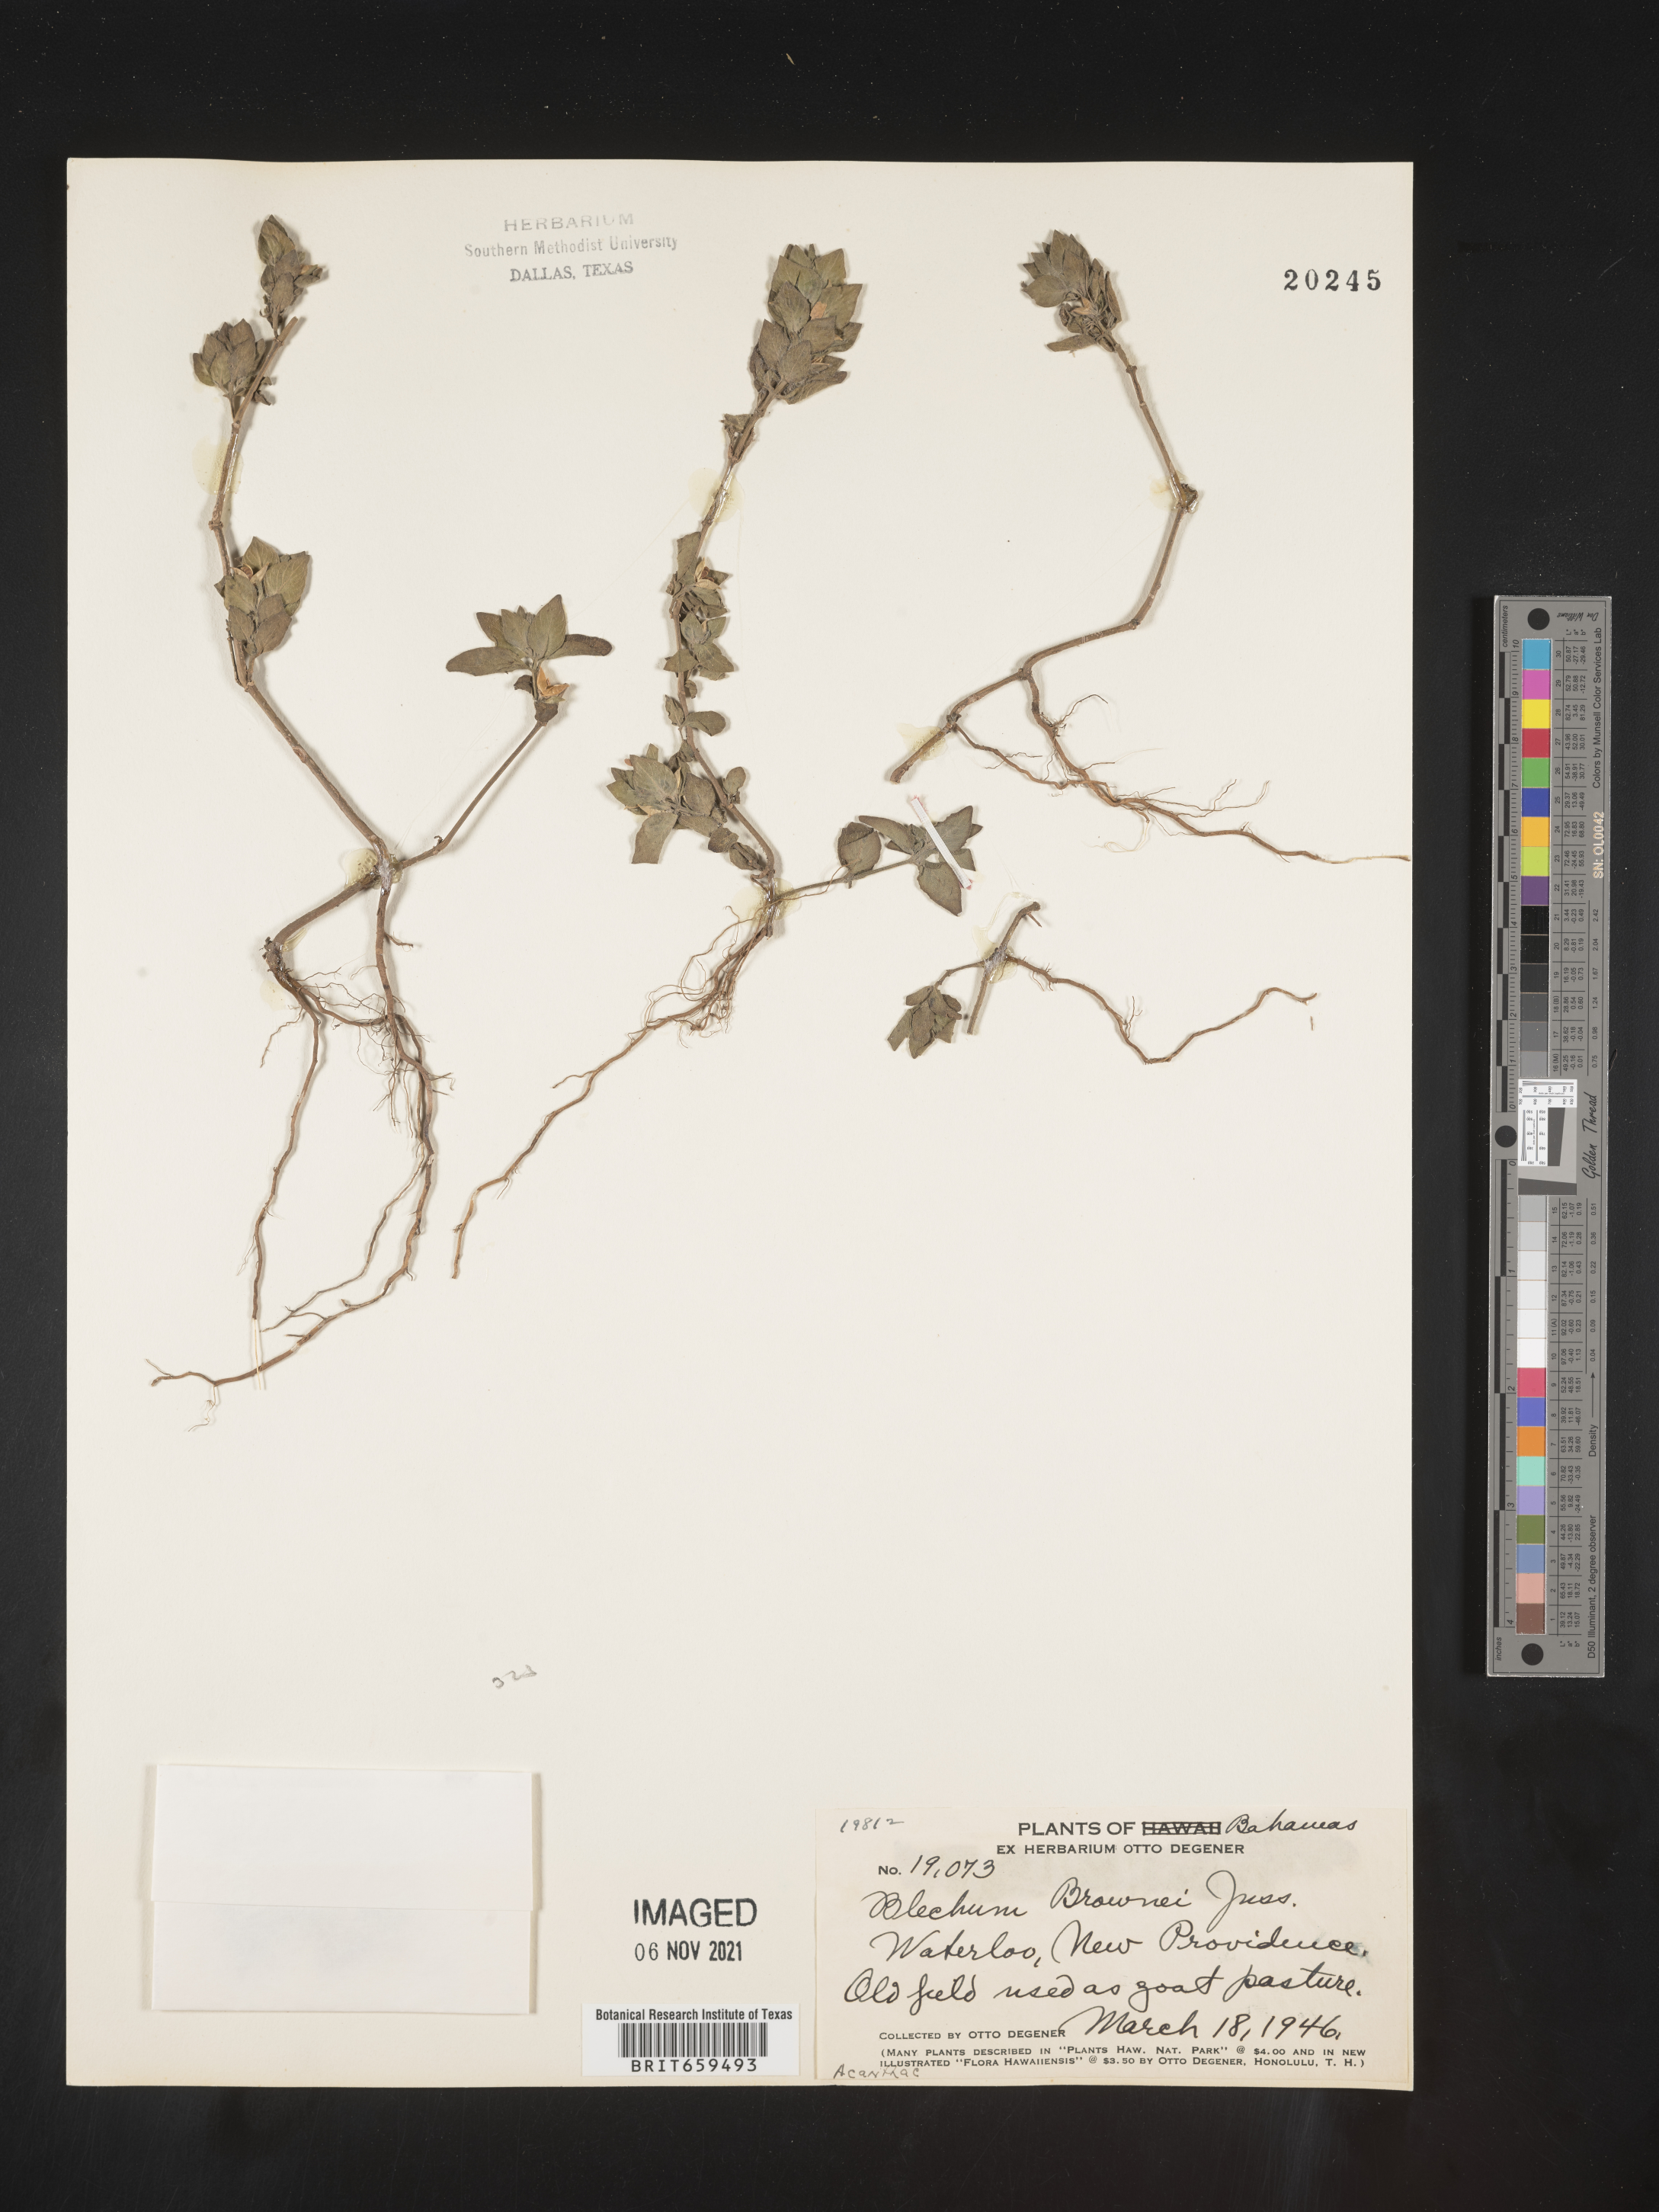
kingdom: Plantae
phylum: Tracheophyta
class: Polypodiopsida
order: Polypodiales
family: Blechnaceae
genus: Blechum
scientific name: Blechum
